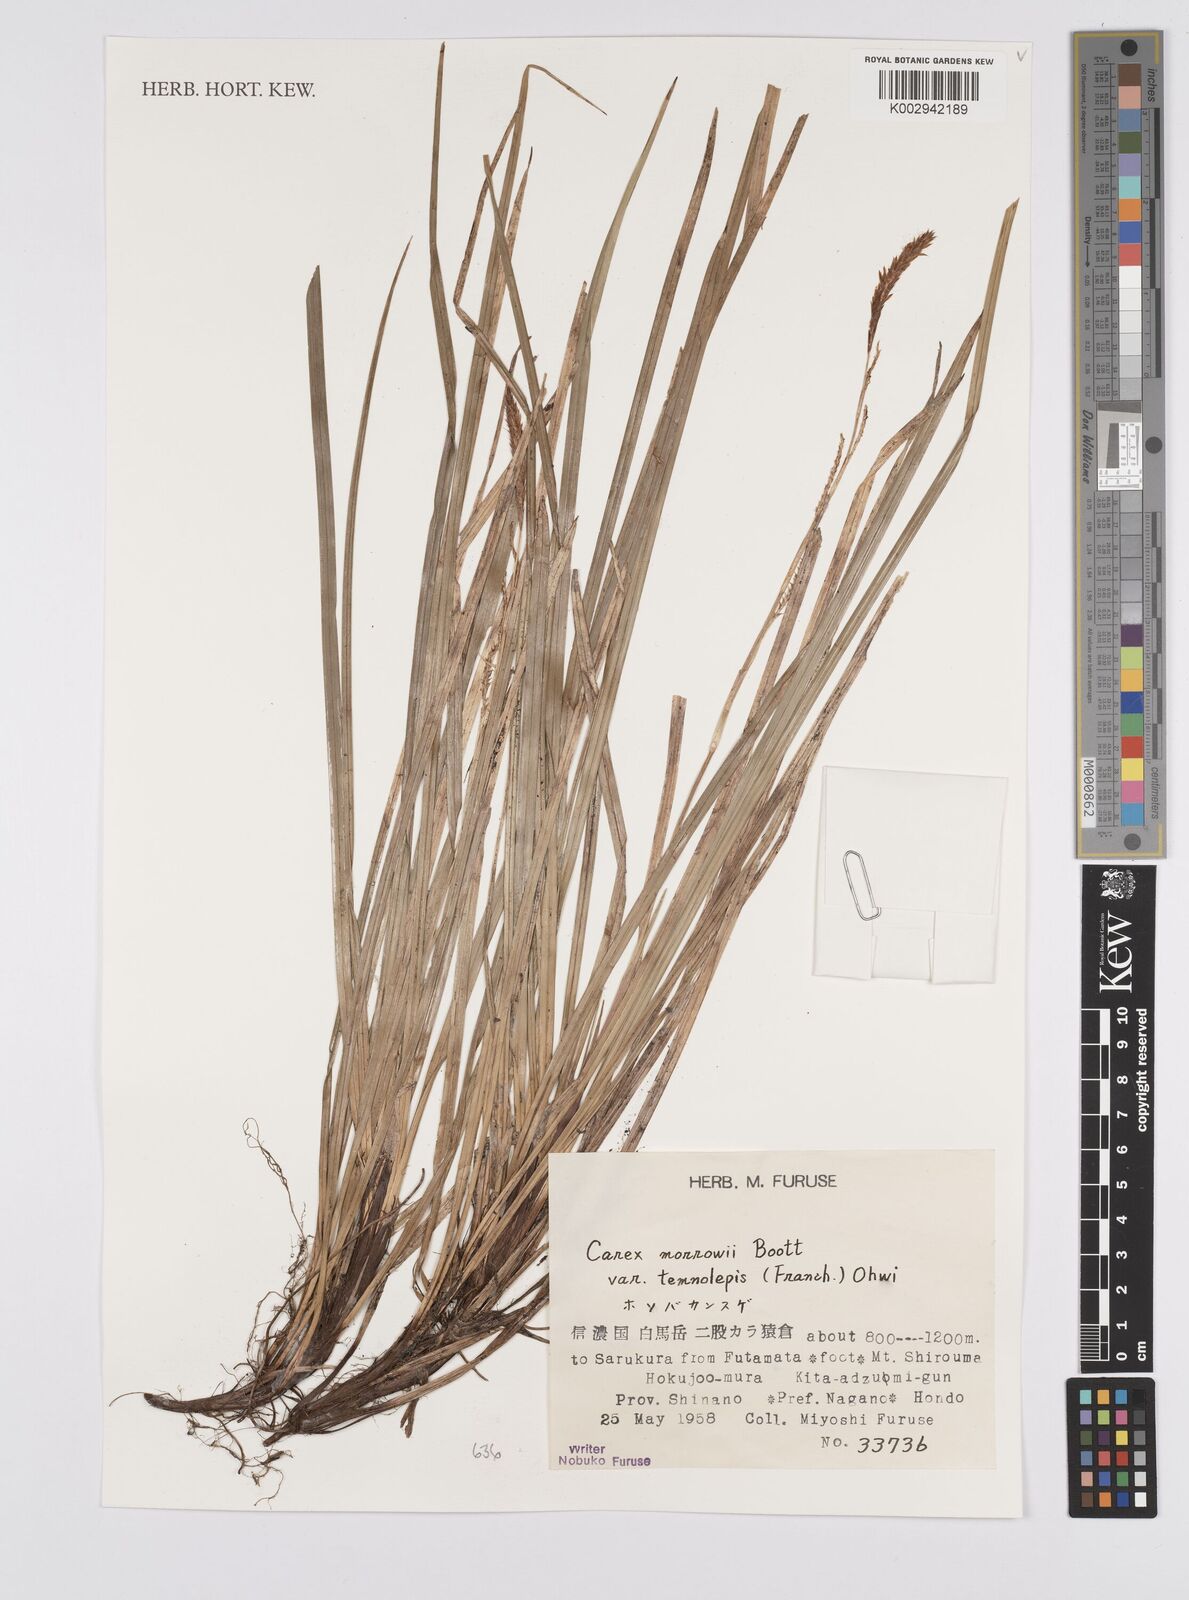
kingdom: Plantae
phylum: Tracheophyta
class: Liliopsida
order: Poales
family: Cyperaceae
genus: Carex
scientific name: Carex morrowii
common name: Japanese sedge
